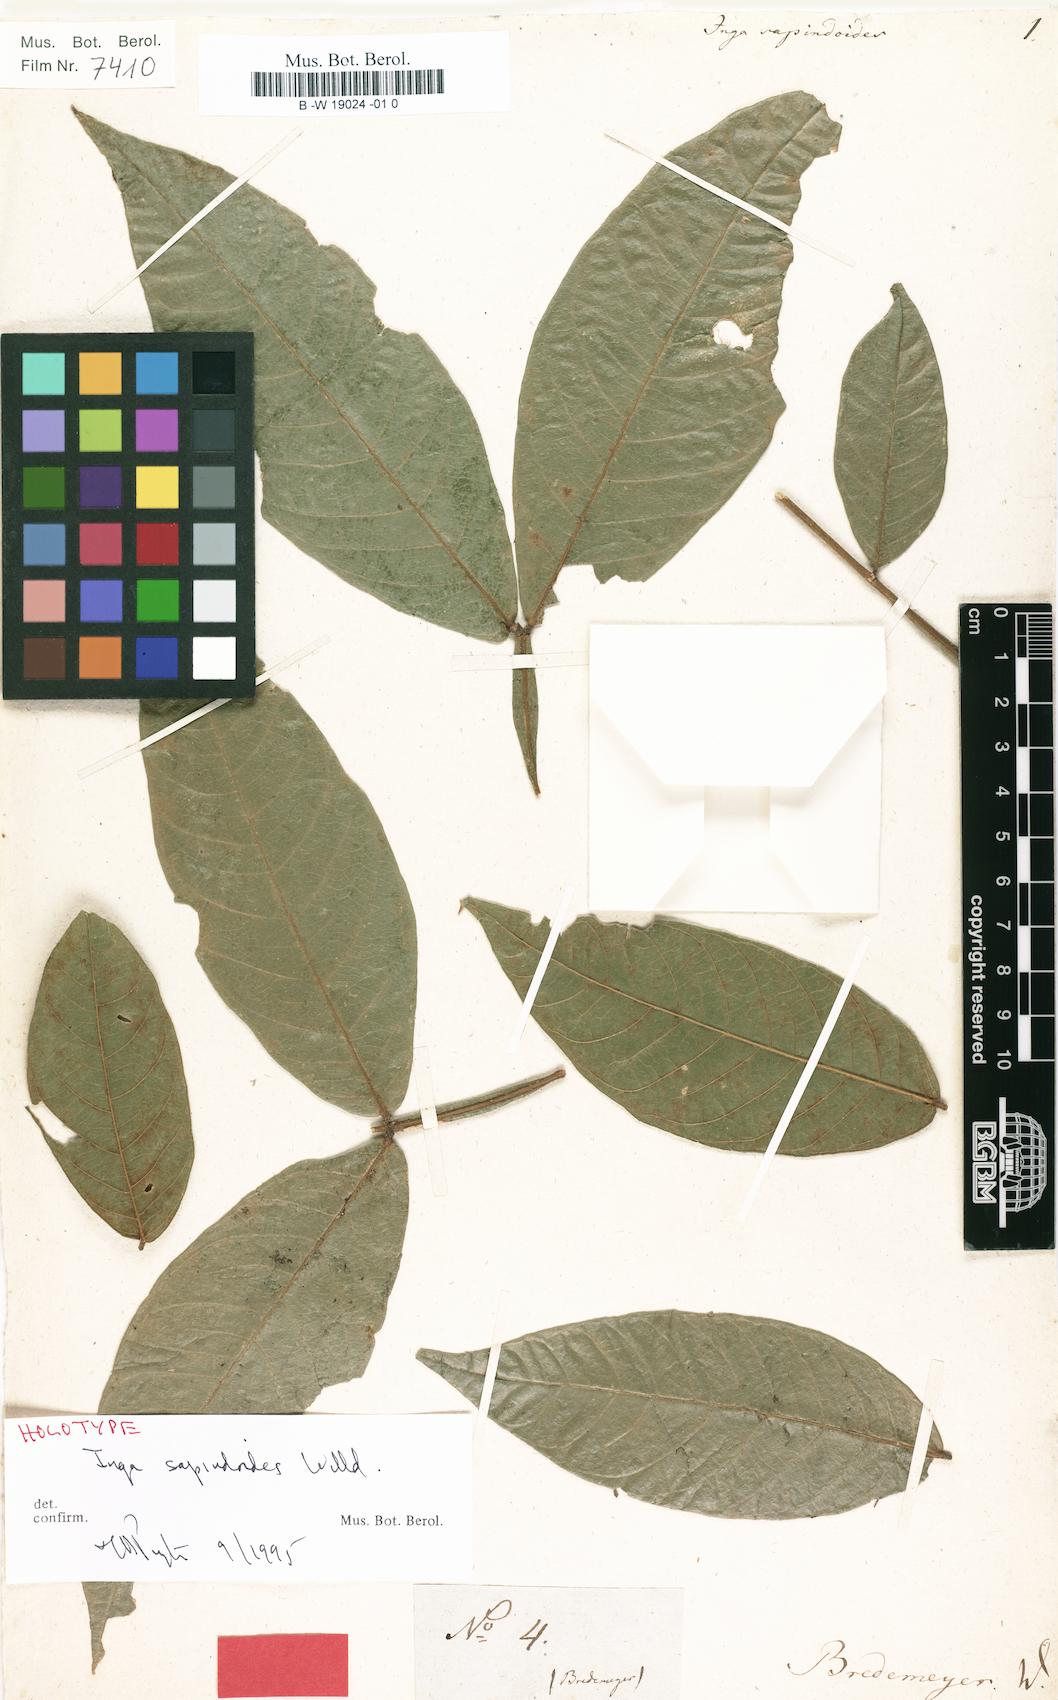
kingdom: Plantae
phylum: Tracheophyta
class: Magnoliopsida
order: Fabales
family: Fabaceae
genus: Inga
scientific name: Inga sapindoides
